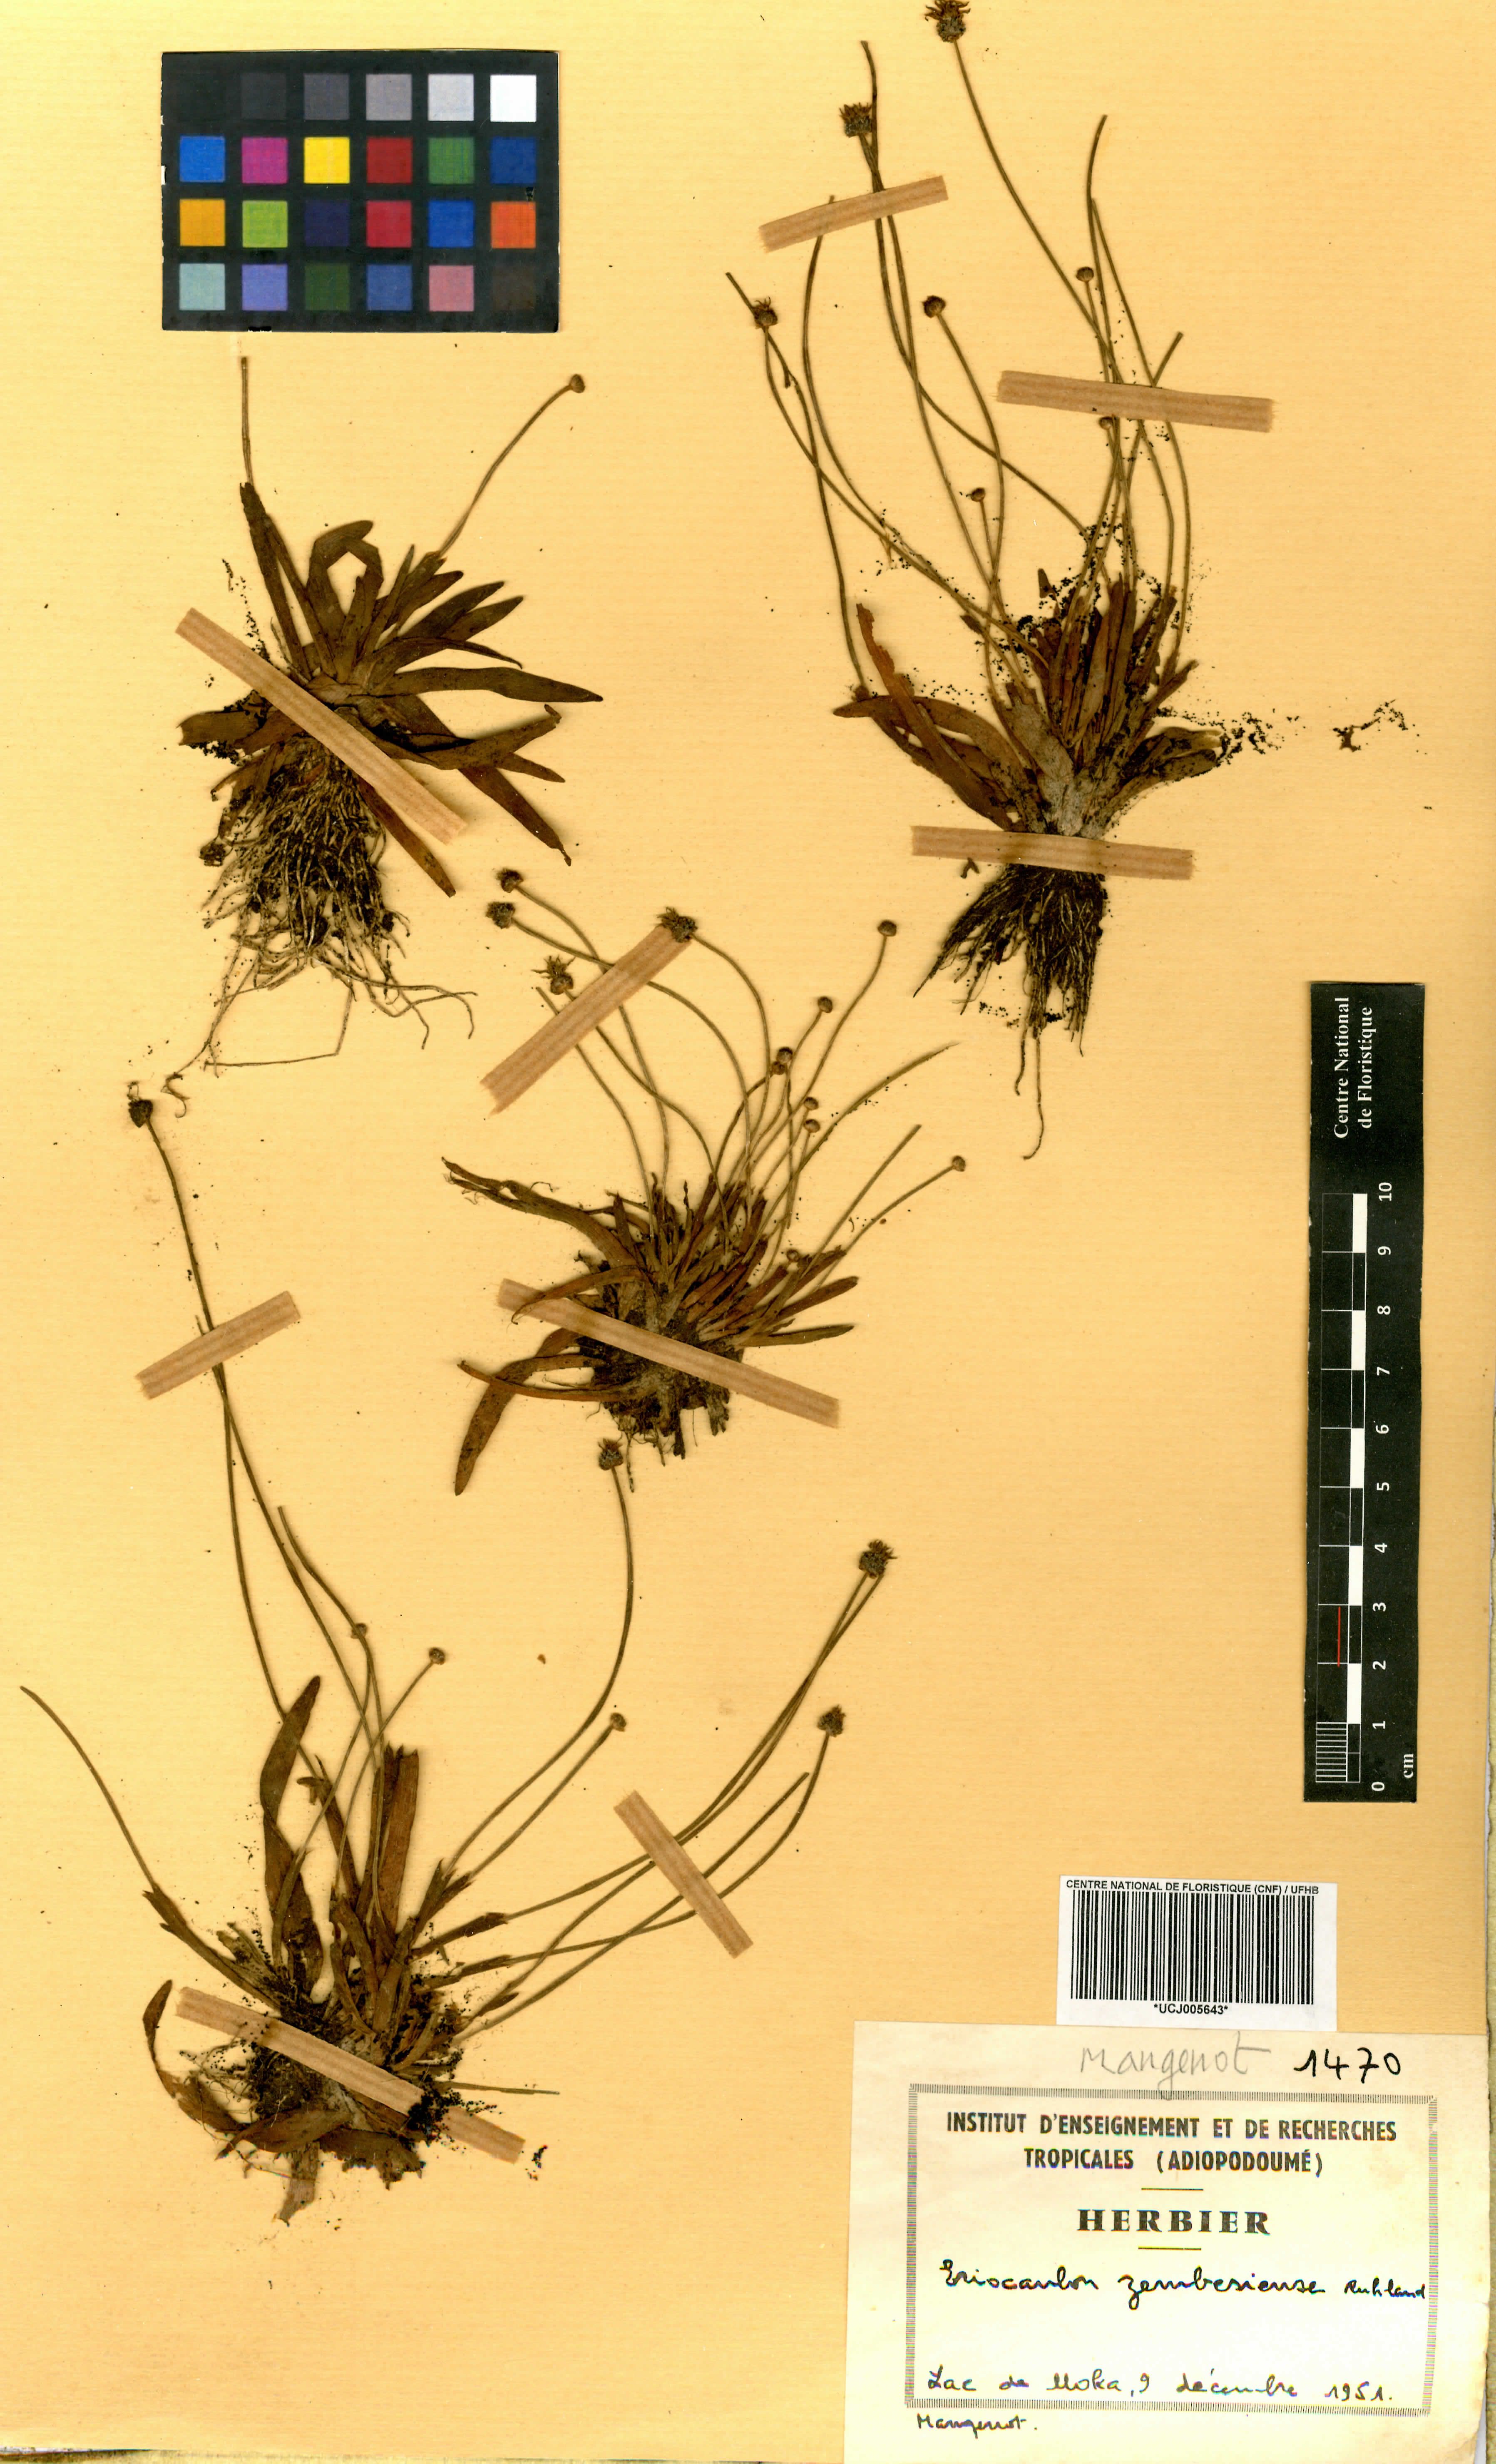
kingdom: Plantae
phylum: Tracheophyta
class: Liliopsida
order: Poales
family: Eriocaulaceae
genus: Eriocaulon
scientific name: Eriocaulon zambesiense
